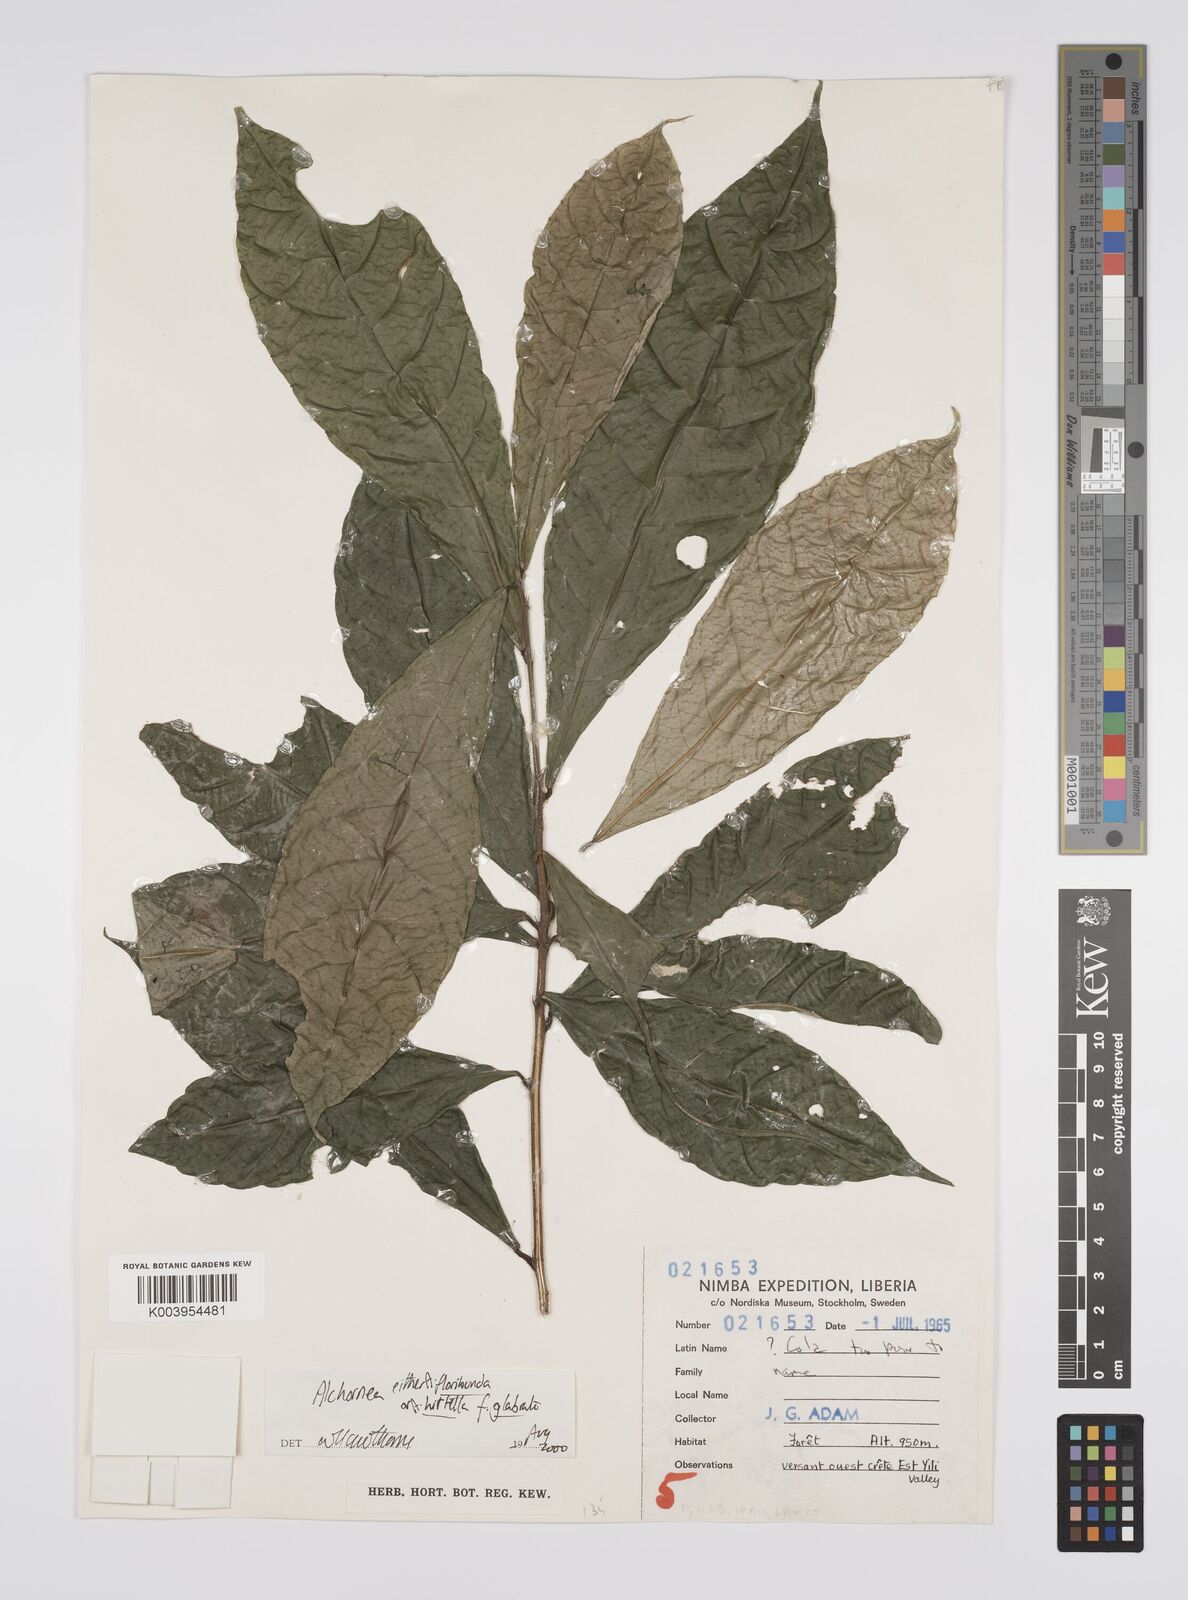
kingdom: Plantae
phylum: Tracheophyta
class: Magnoliopsida
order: Malpighiales
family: Euphorbiaceae
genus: Alchornea
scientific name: Alchornea
